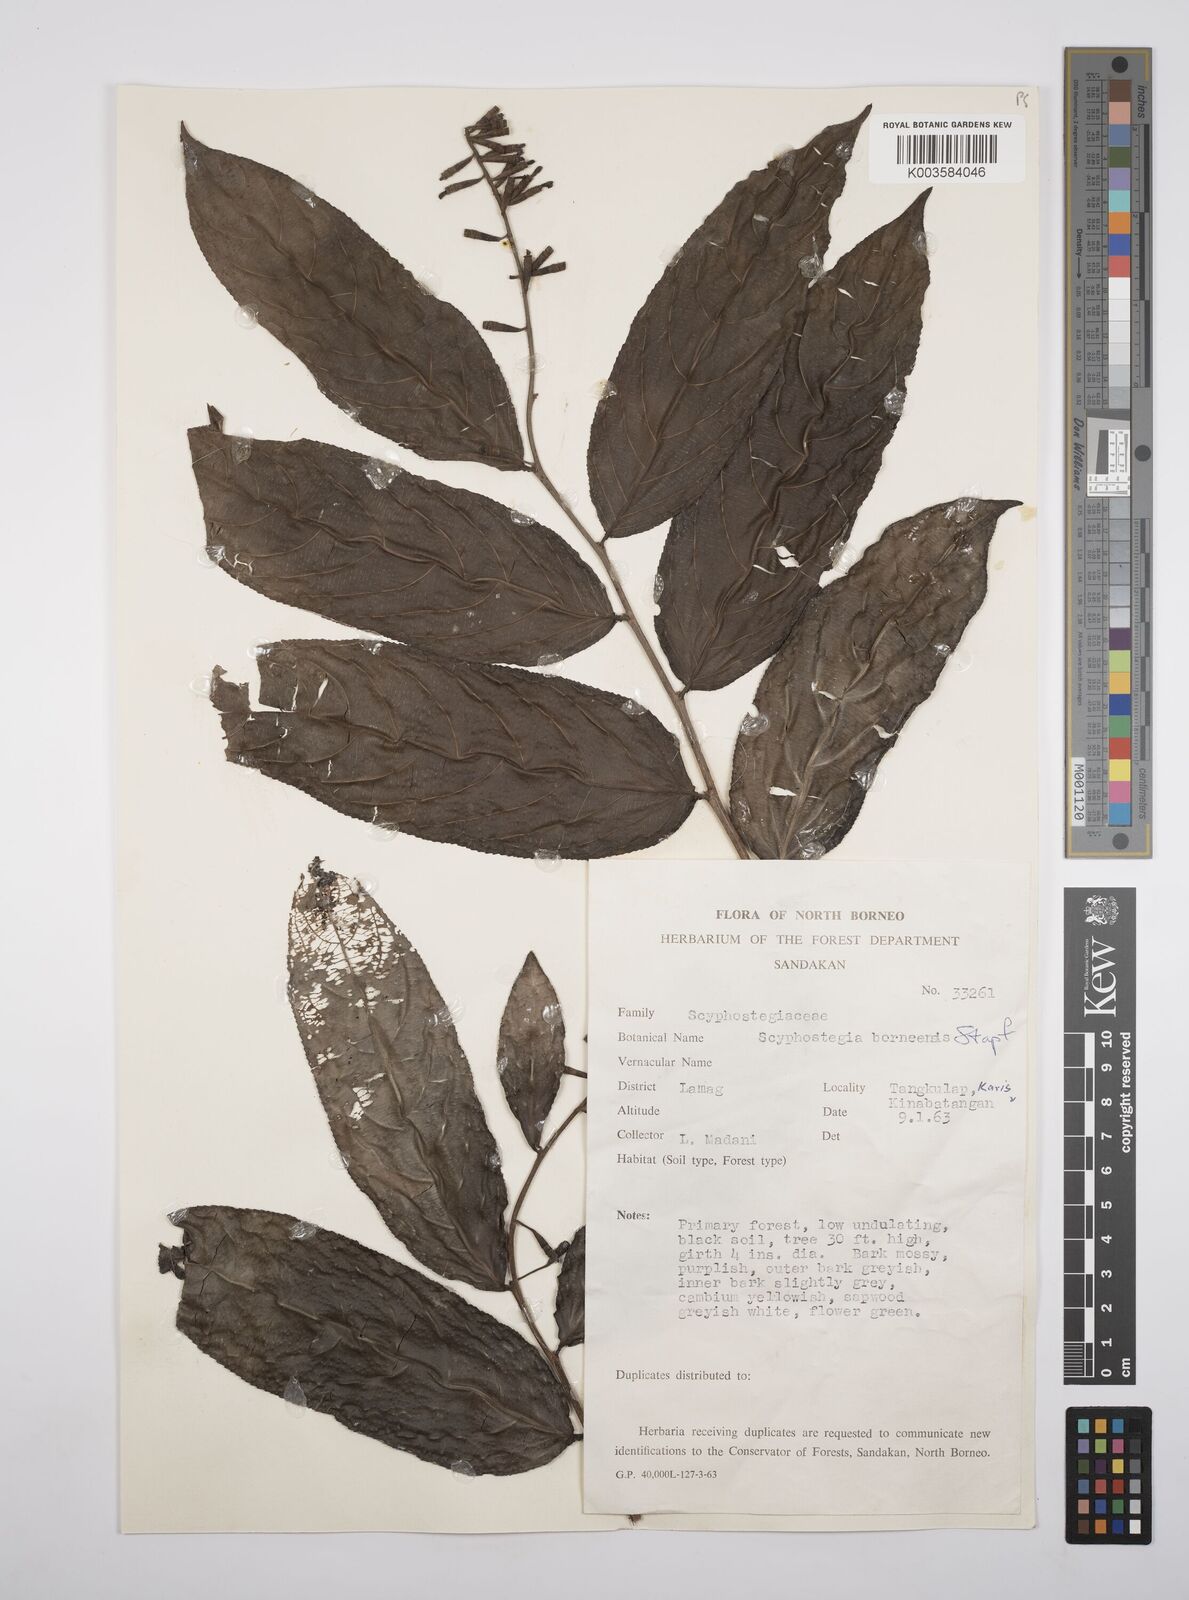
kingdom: Plantae
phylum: Tracheophyta
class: Magnoliopsida
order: Malpighiales
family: Salicaceae
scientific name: Salicaceae
